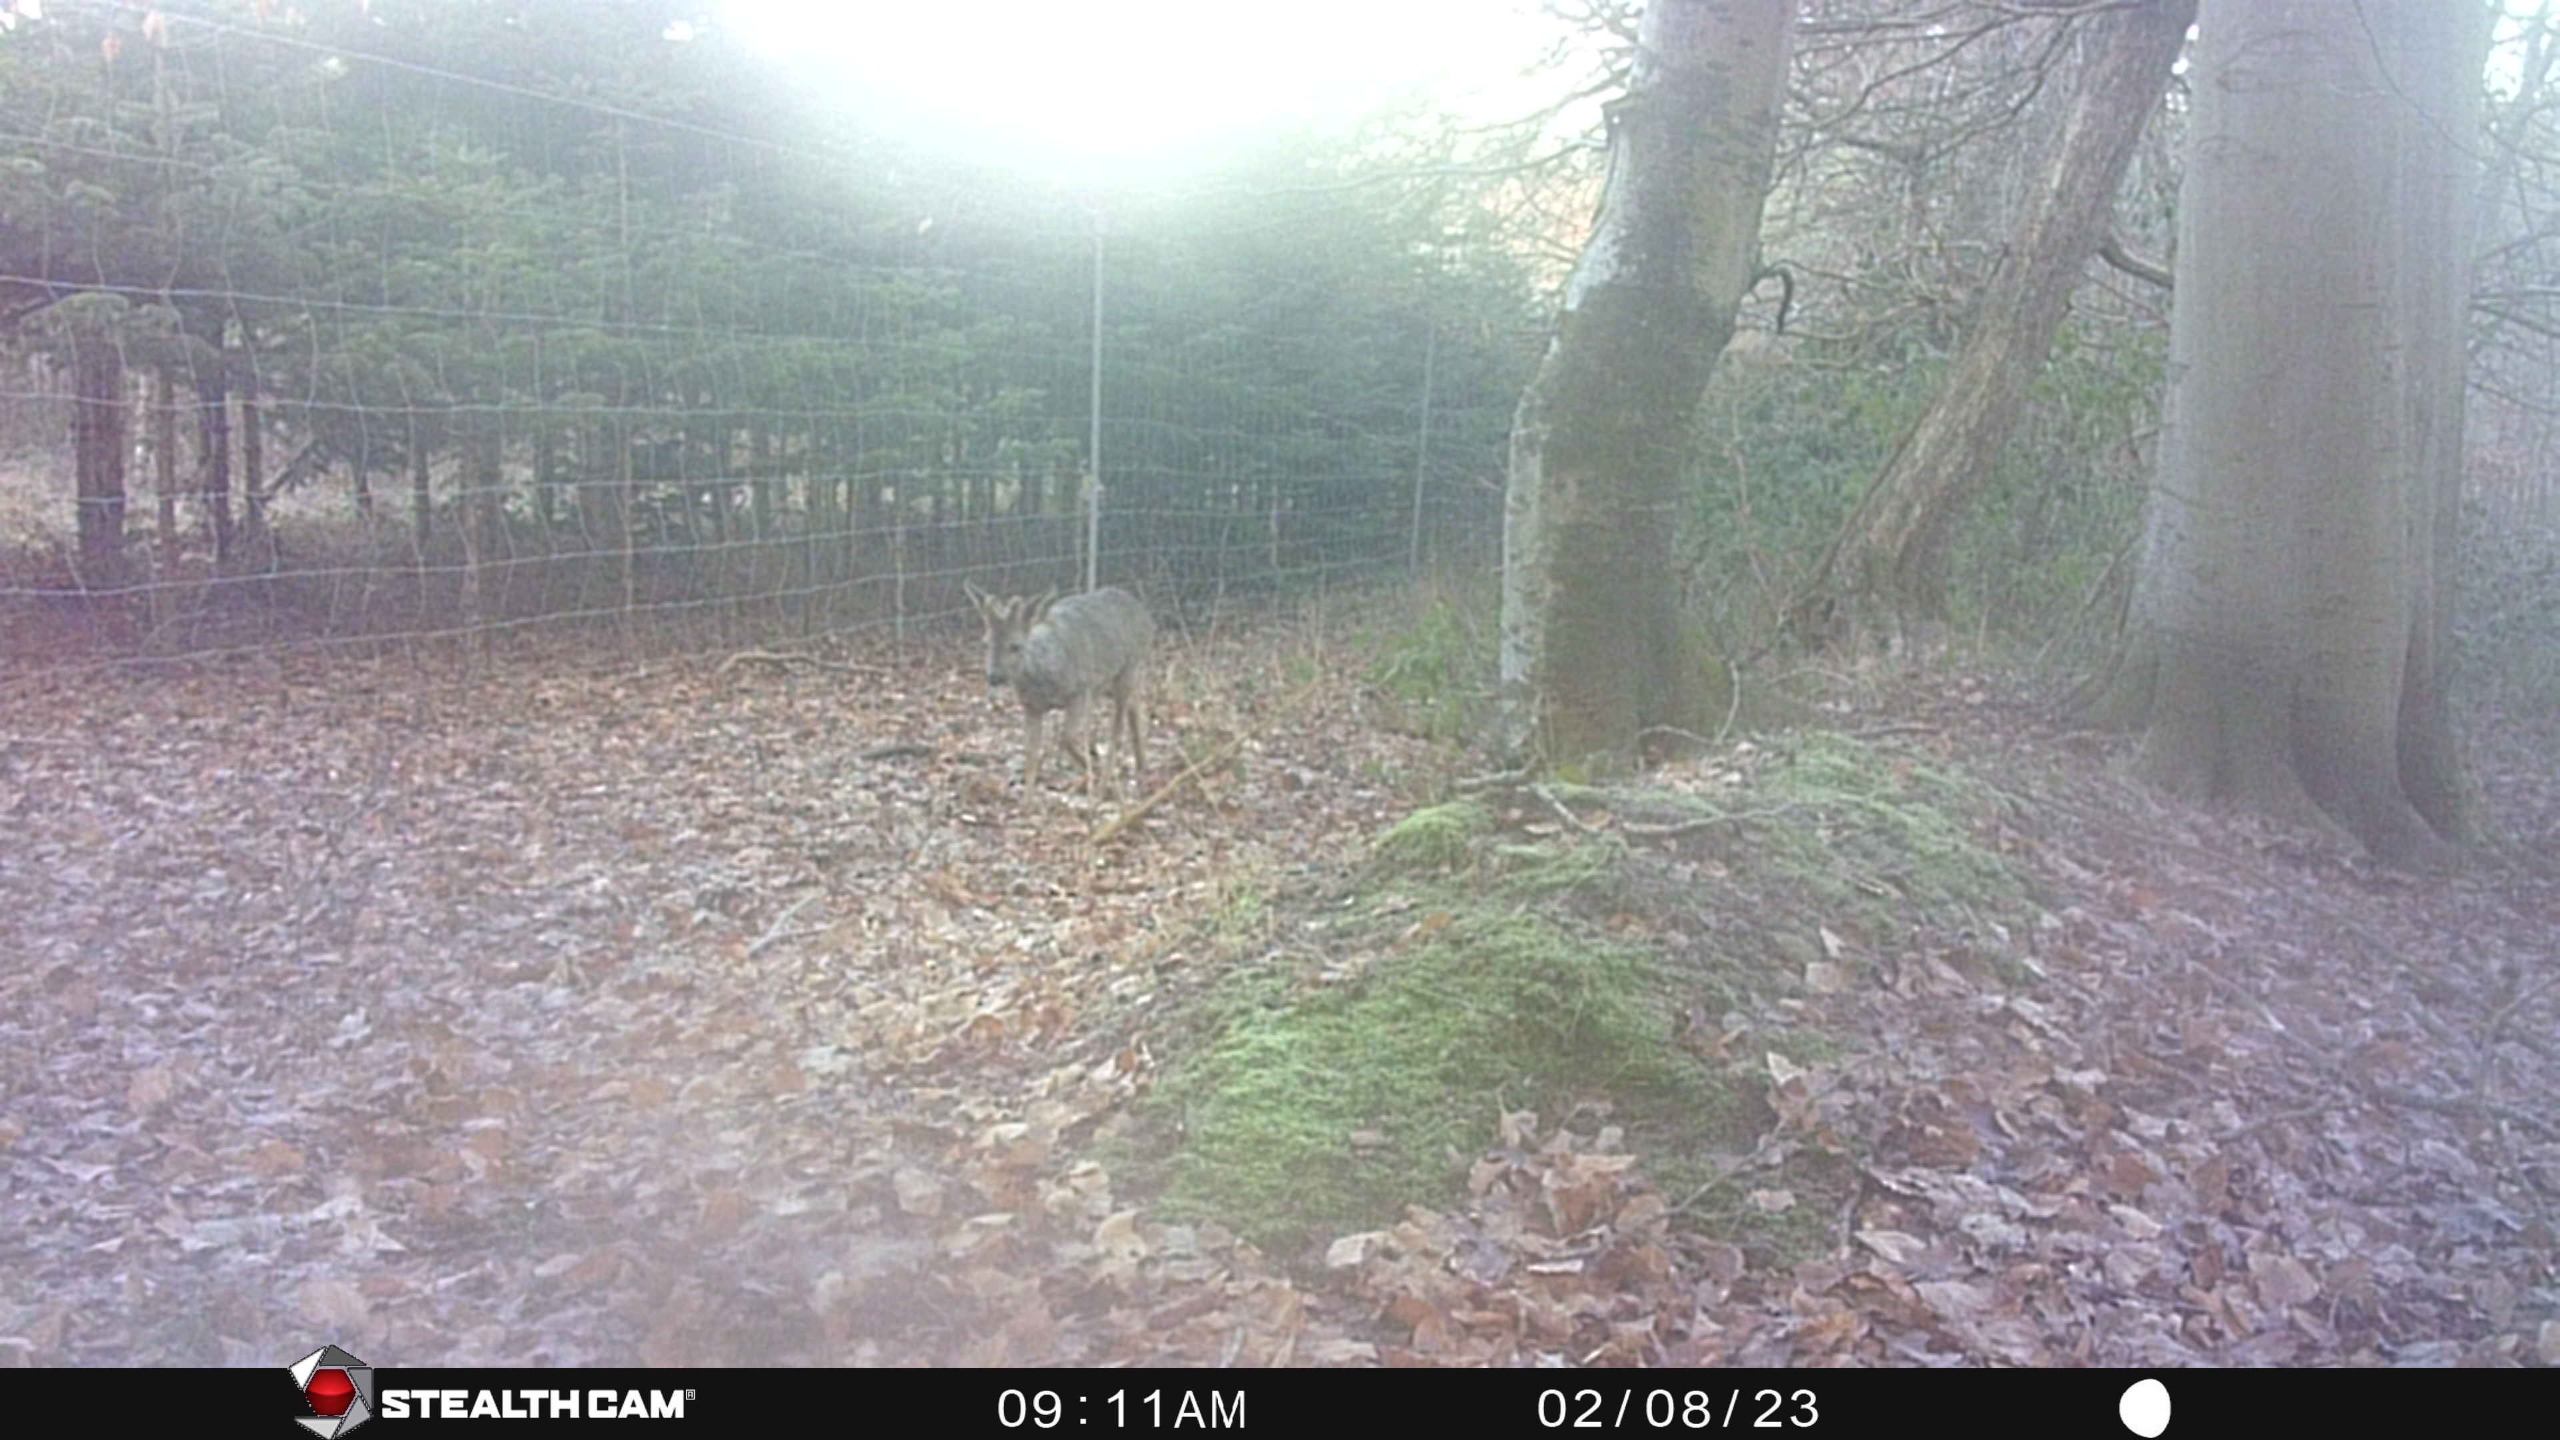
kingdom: Animalia
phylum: Chordata
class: Mammalia
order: Artiodactyla
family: Cervidae
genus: Capreolus
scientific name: Capreolus capreolus
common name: Rådyr
